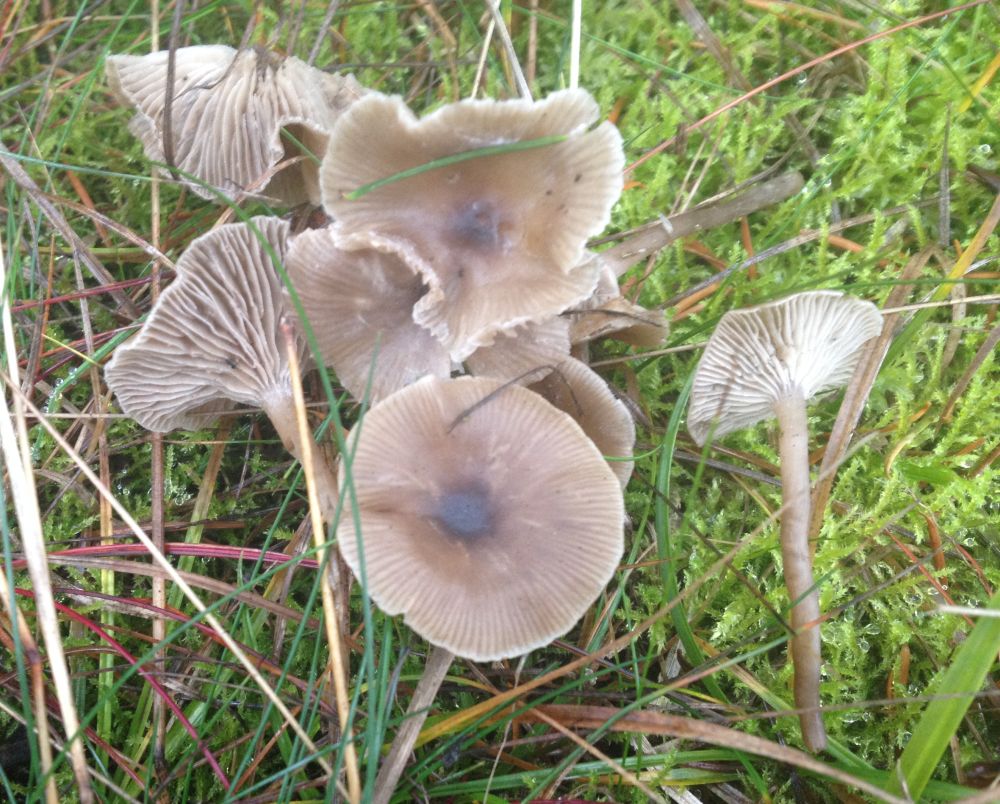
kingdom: Fungi
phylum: Basidiomycota
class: Agaricomycetes
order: Agaricales
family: Tricholomataceae
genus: Clitocybe
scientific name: Clitocybe vibecina
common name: randstribet tragthat
